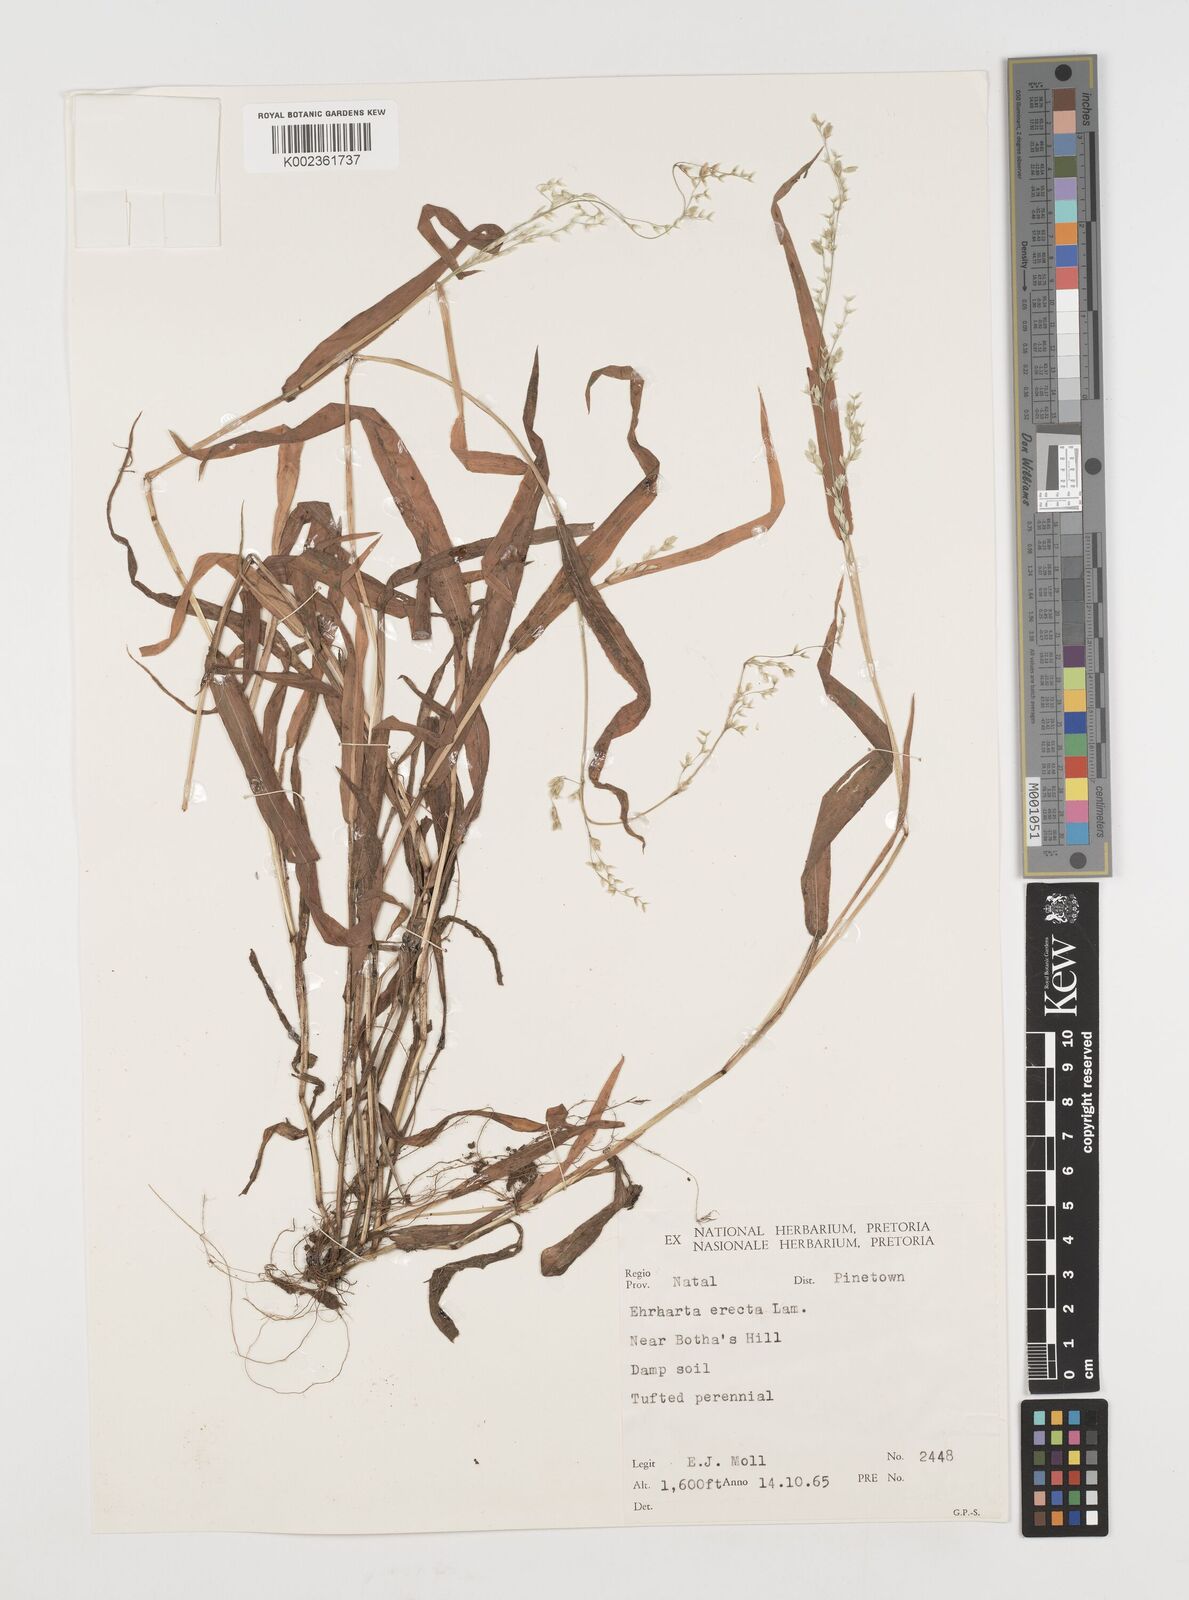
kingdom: Plantae
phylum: Tracheophyta
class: Liliopsida
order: Poales
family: Poaceae
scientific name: Poaceae
